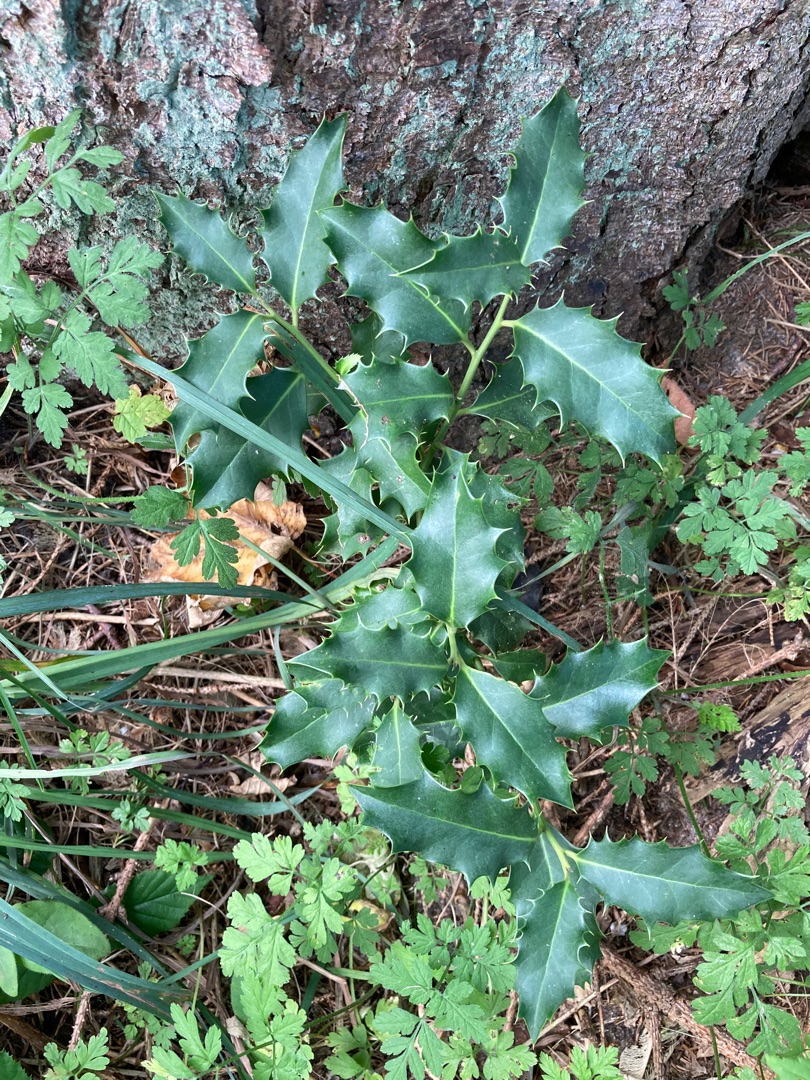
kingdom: Plantae
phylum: Tracheophyta
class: Magnoliopsida
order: Aquifoliales
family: Aquifoliaceae
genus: Ilex
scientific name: Ilex aquifolium
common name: Kristtorn
